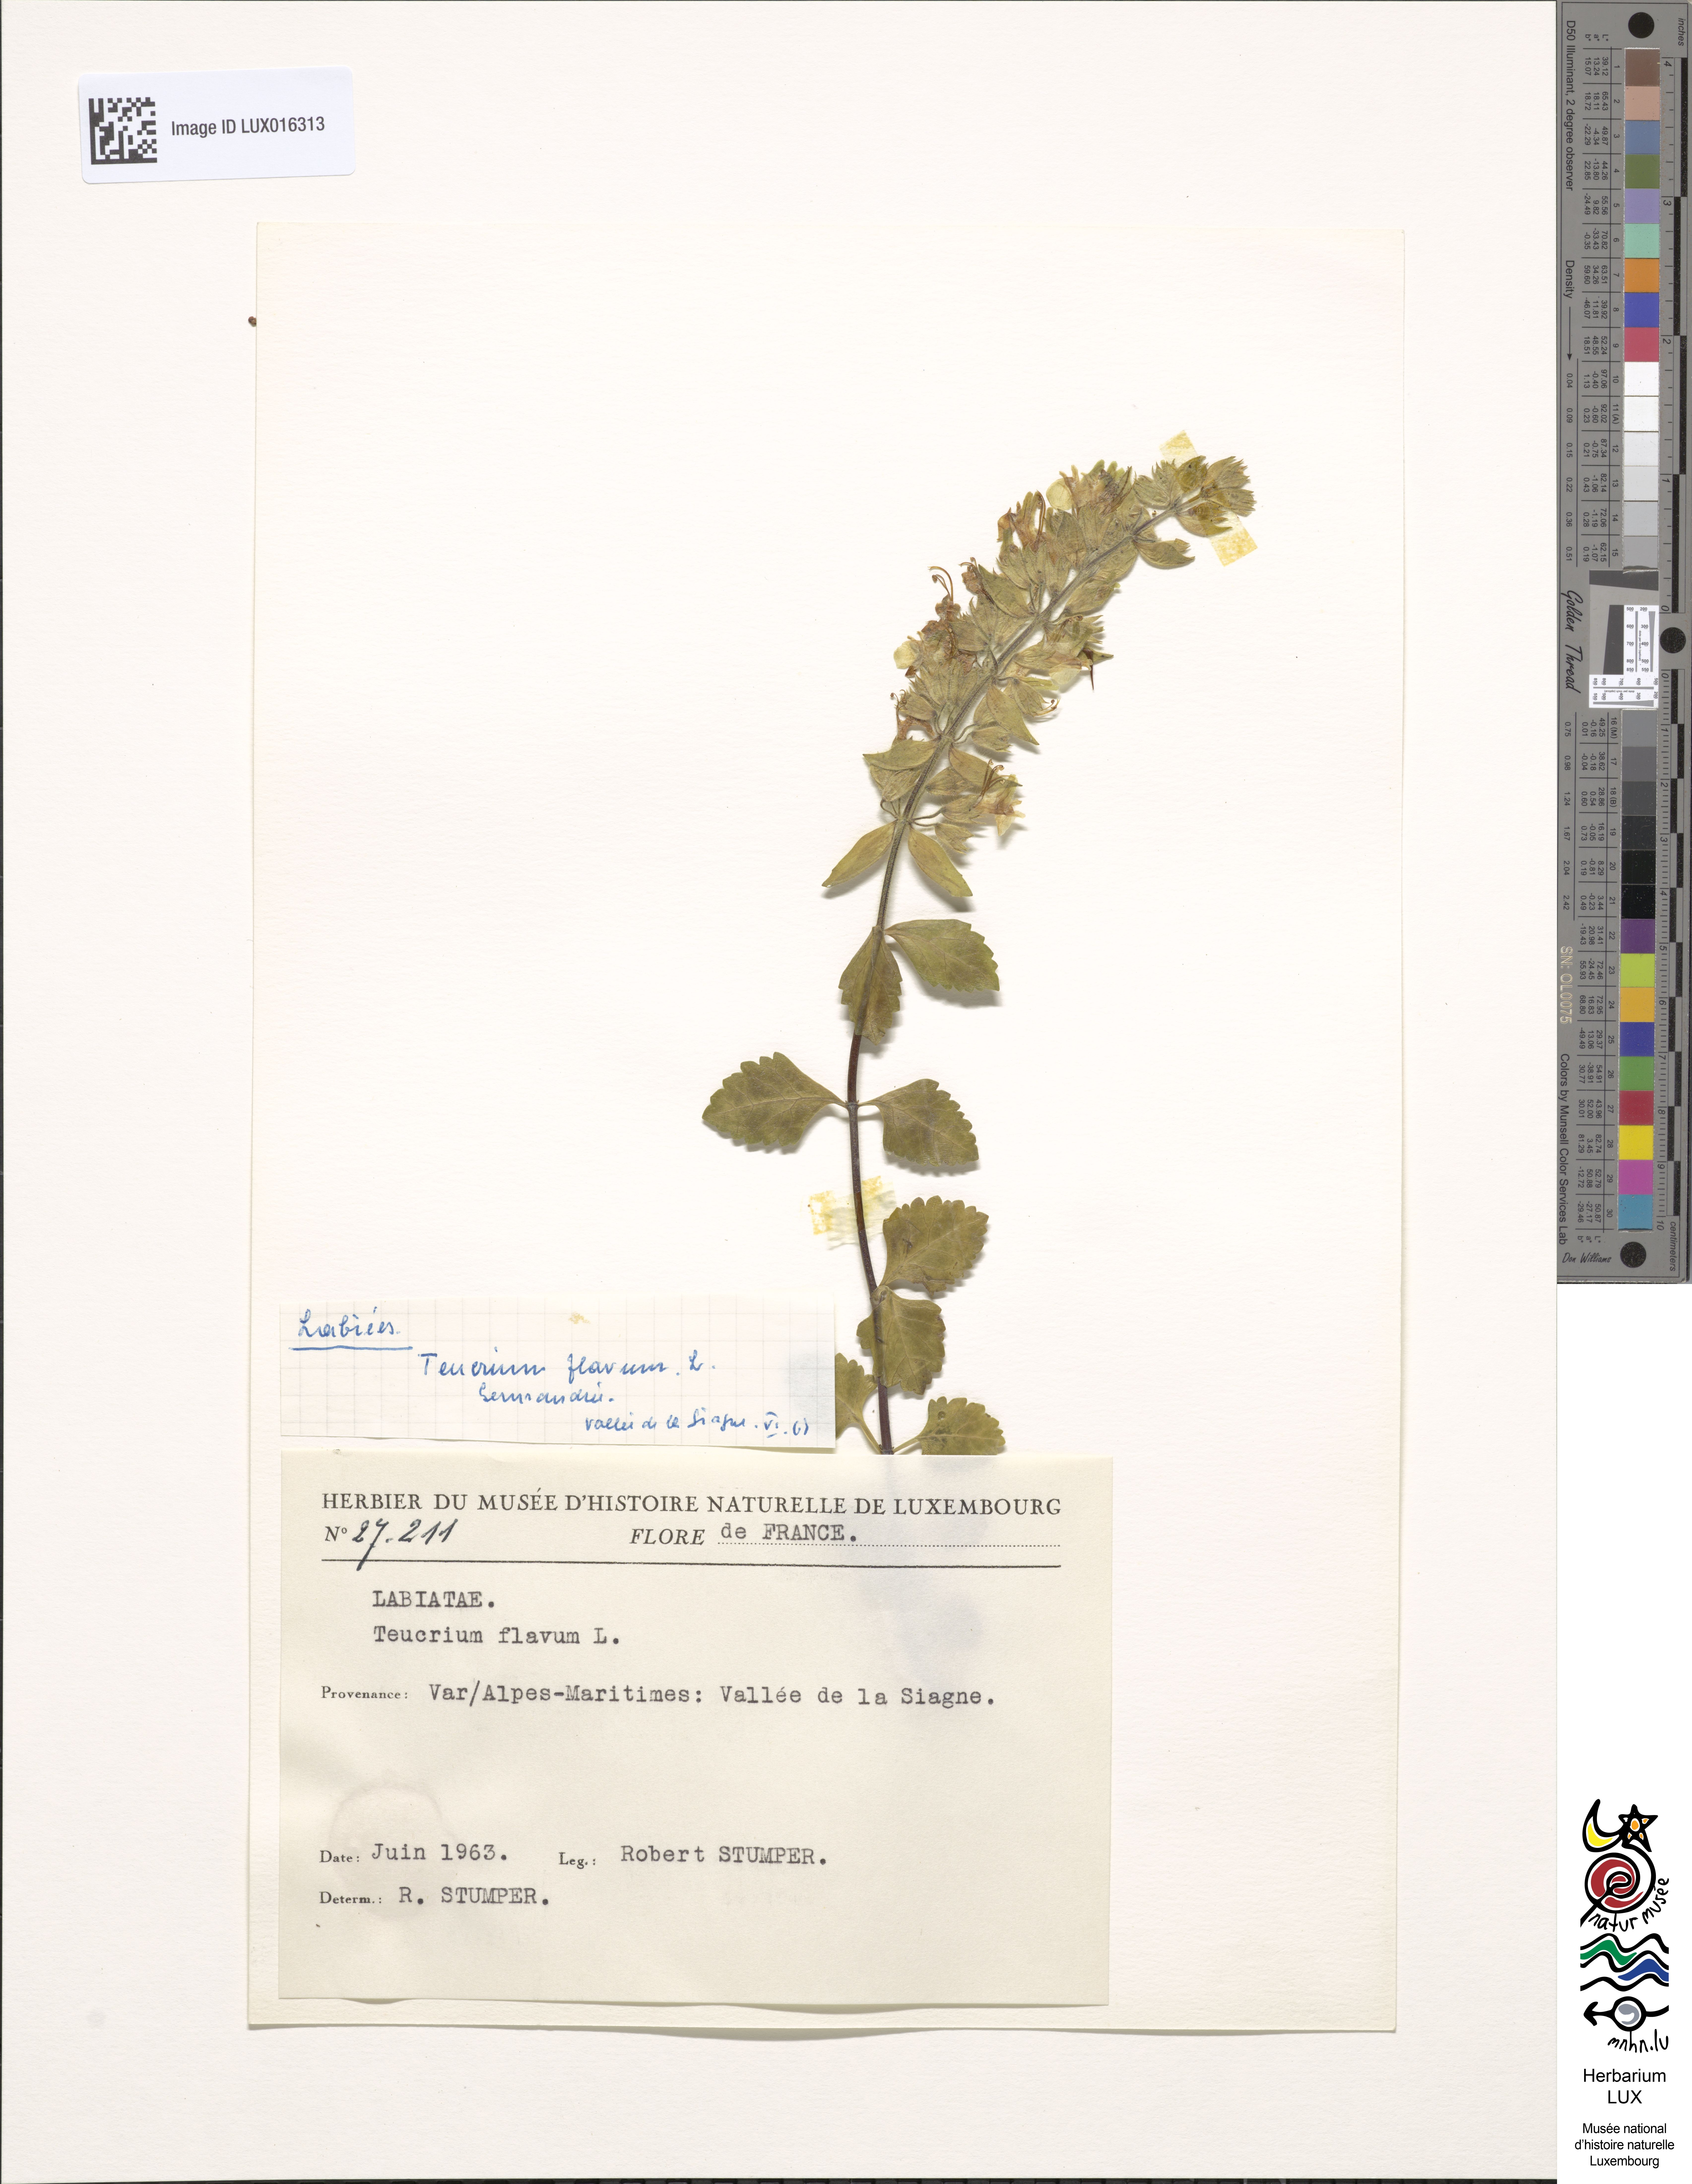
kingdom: Plantae
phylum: Tracheophyta
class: Magnoliopsida
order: Lamiales
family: Lamiaceae
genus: Teucrium
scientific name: Teucrium flavum
